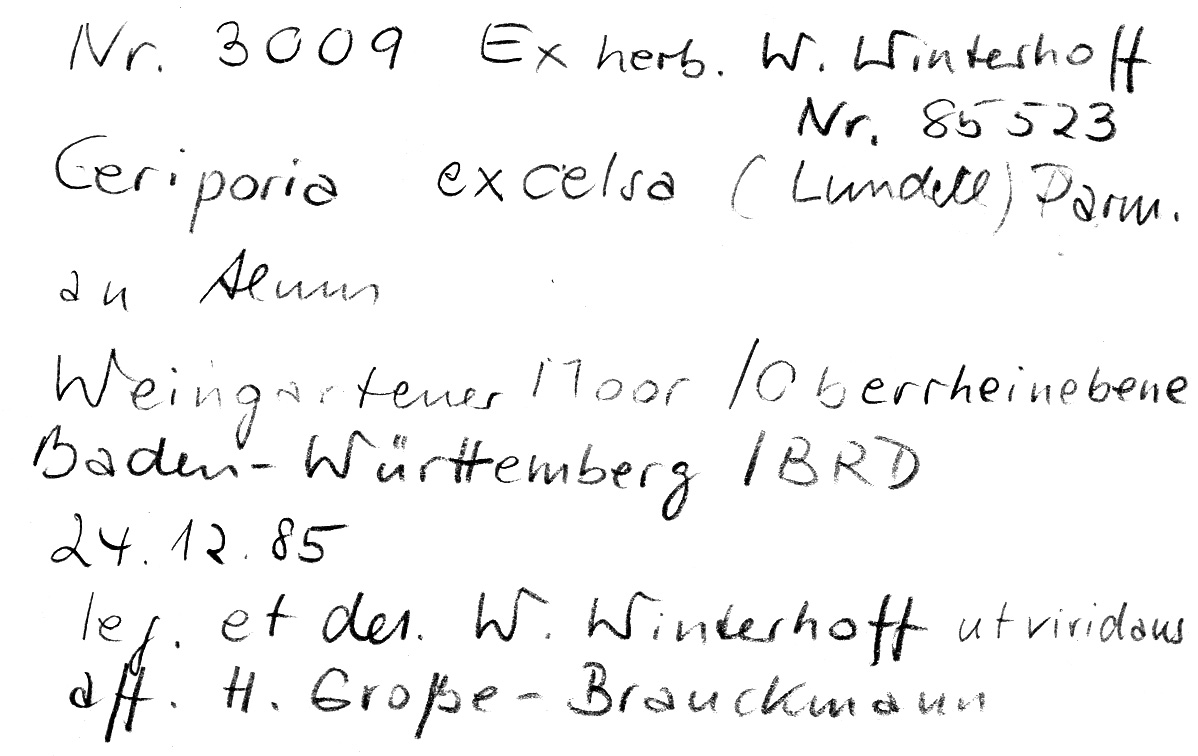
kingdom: Plantae
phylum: Tracheophyta
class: Magnoliopsida
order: Fagales
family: Betulaceae
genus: Alnus
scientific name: Alnus
